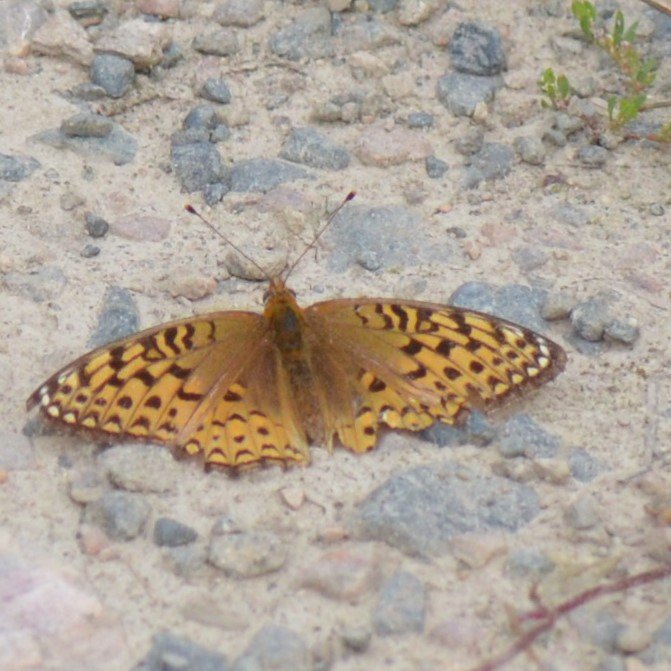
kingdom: Animalia
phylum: Arthropoda
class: Insecta
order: Lepidoptera
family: Nymphalidae
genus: Speyeria
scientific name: Speyeria atlantis
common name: Atlantis Fritillary
